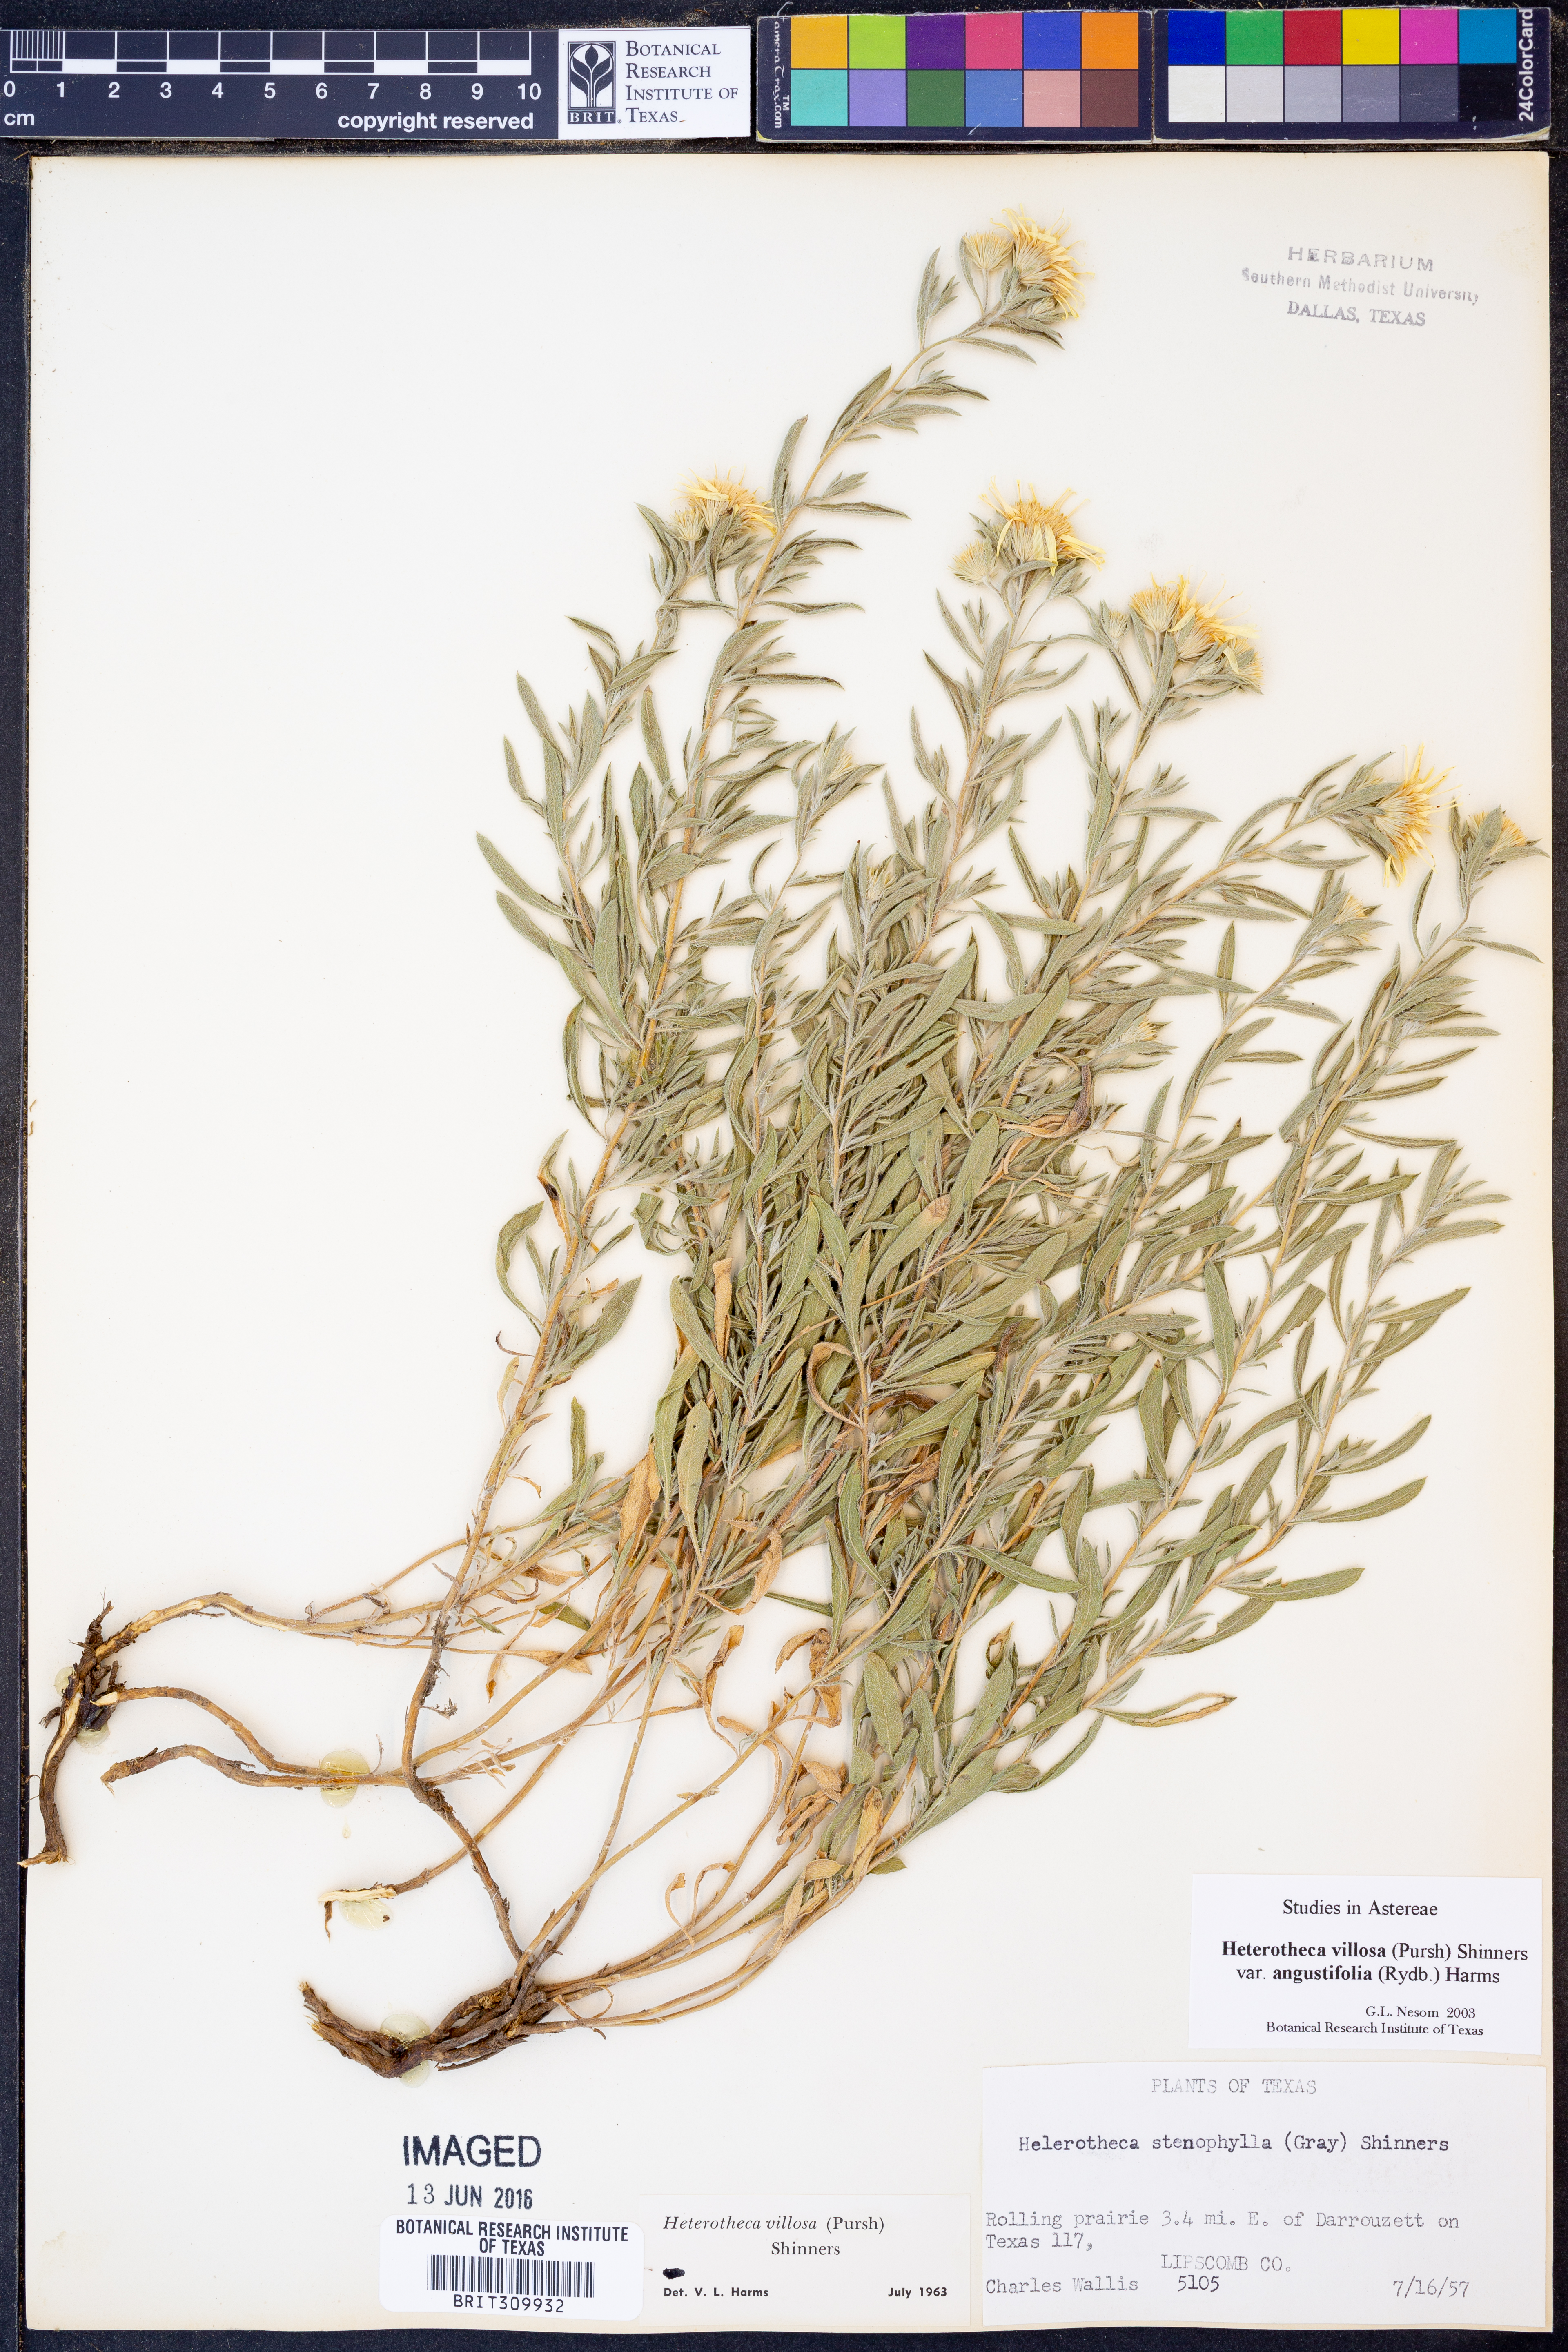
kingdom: Plantae
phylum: Tracheophyta
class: Magnoliopsida
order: Asterales
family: Asteraceae
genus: Heterotheca
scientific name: Heterotheca angustifolia
